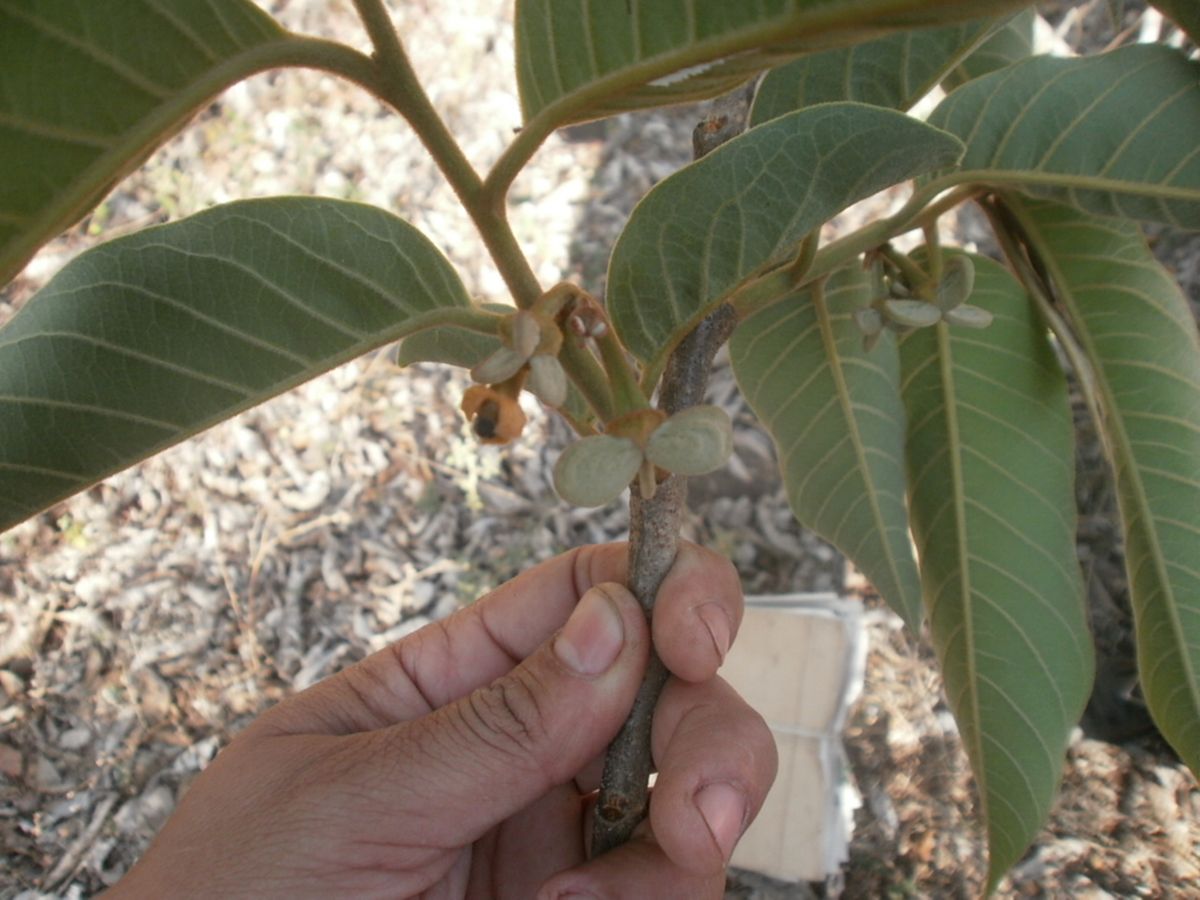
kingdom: Plantae
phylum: Tracheophyta
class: Magnoliopsida
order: Magnoliales
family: Annonaceae
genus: Annona
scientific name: Annona rensoniana
